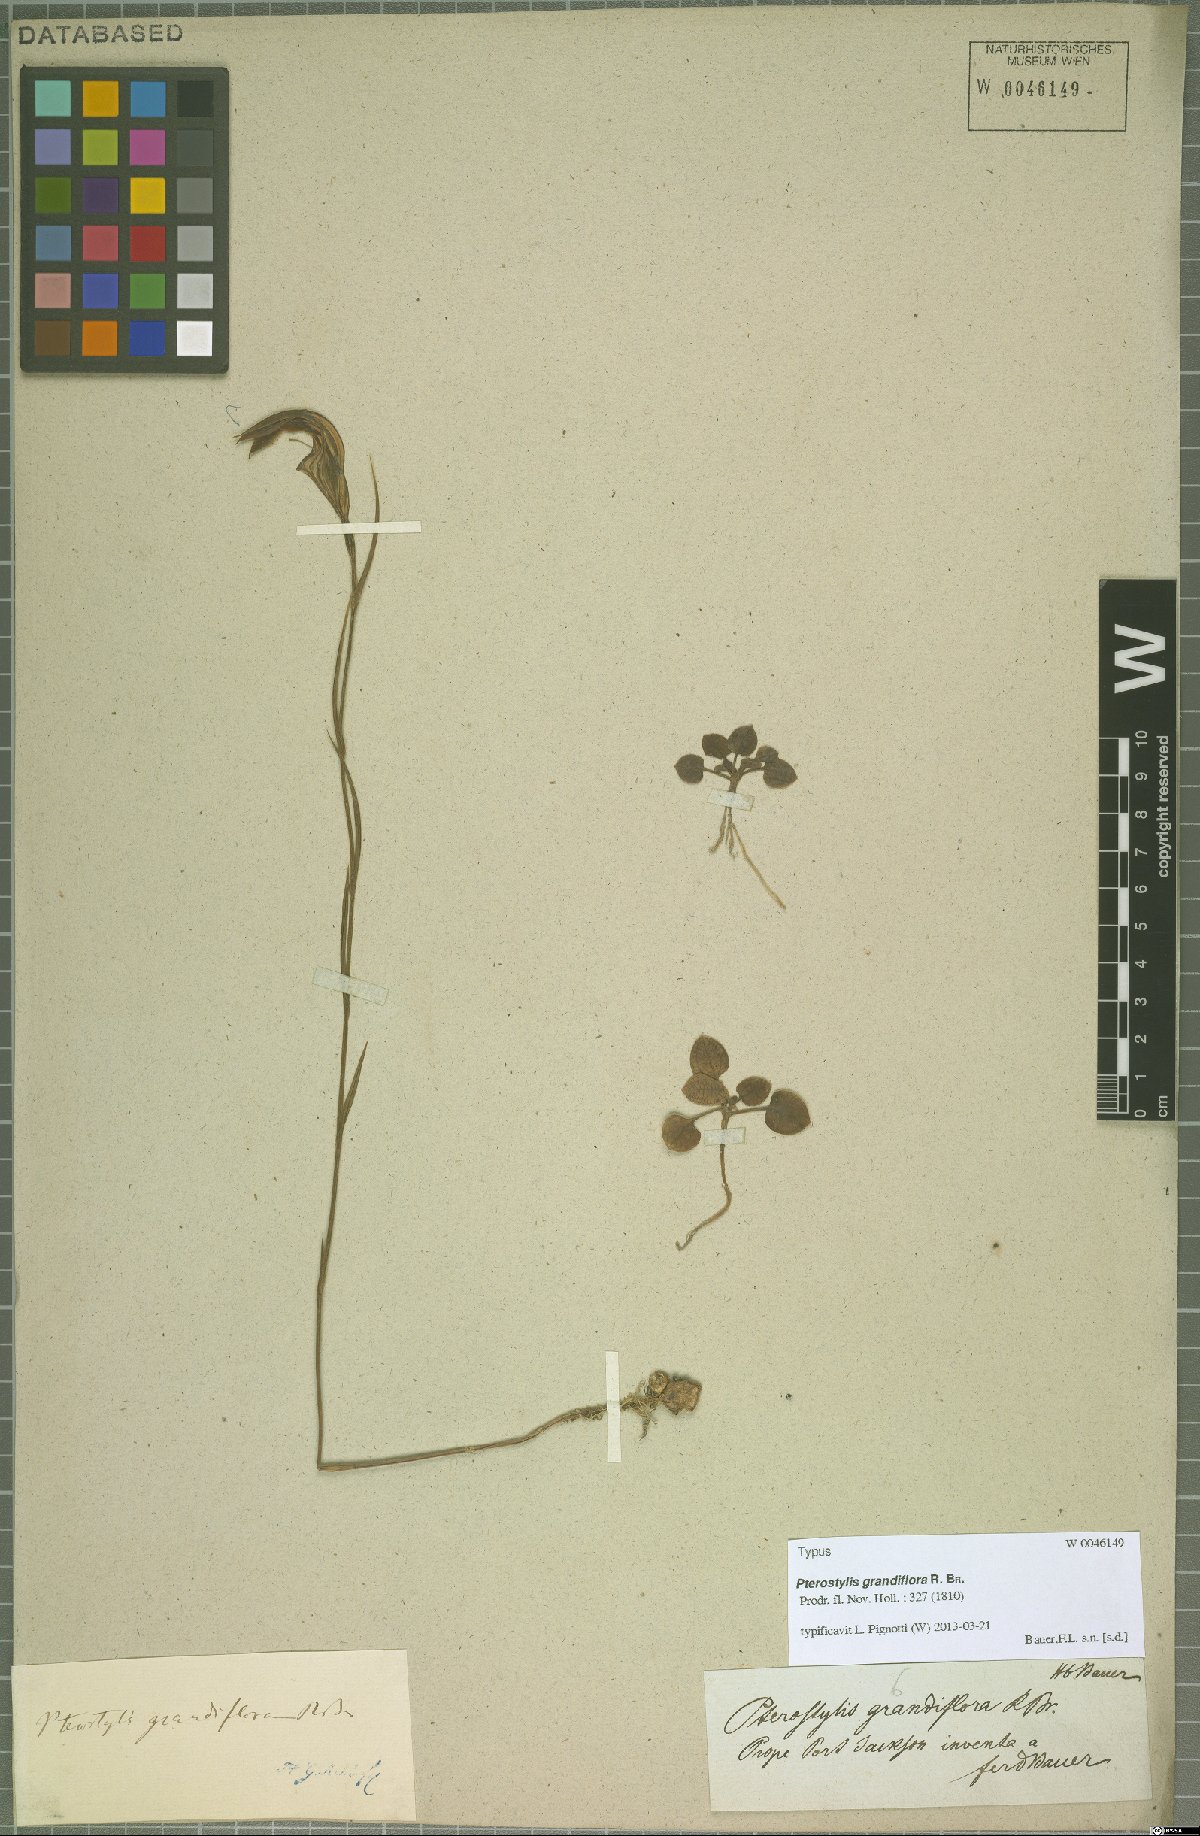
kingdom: Plantae
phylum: Tracheophyta
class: Liliopsida
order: Asparagales
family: Orchidaceae
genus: Pterostylis
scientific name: Pterostylis grandiflora
